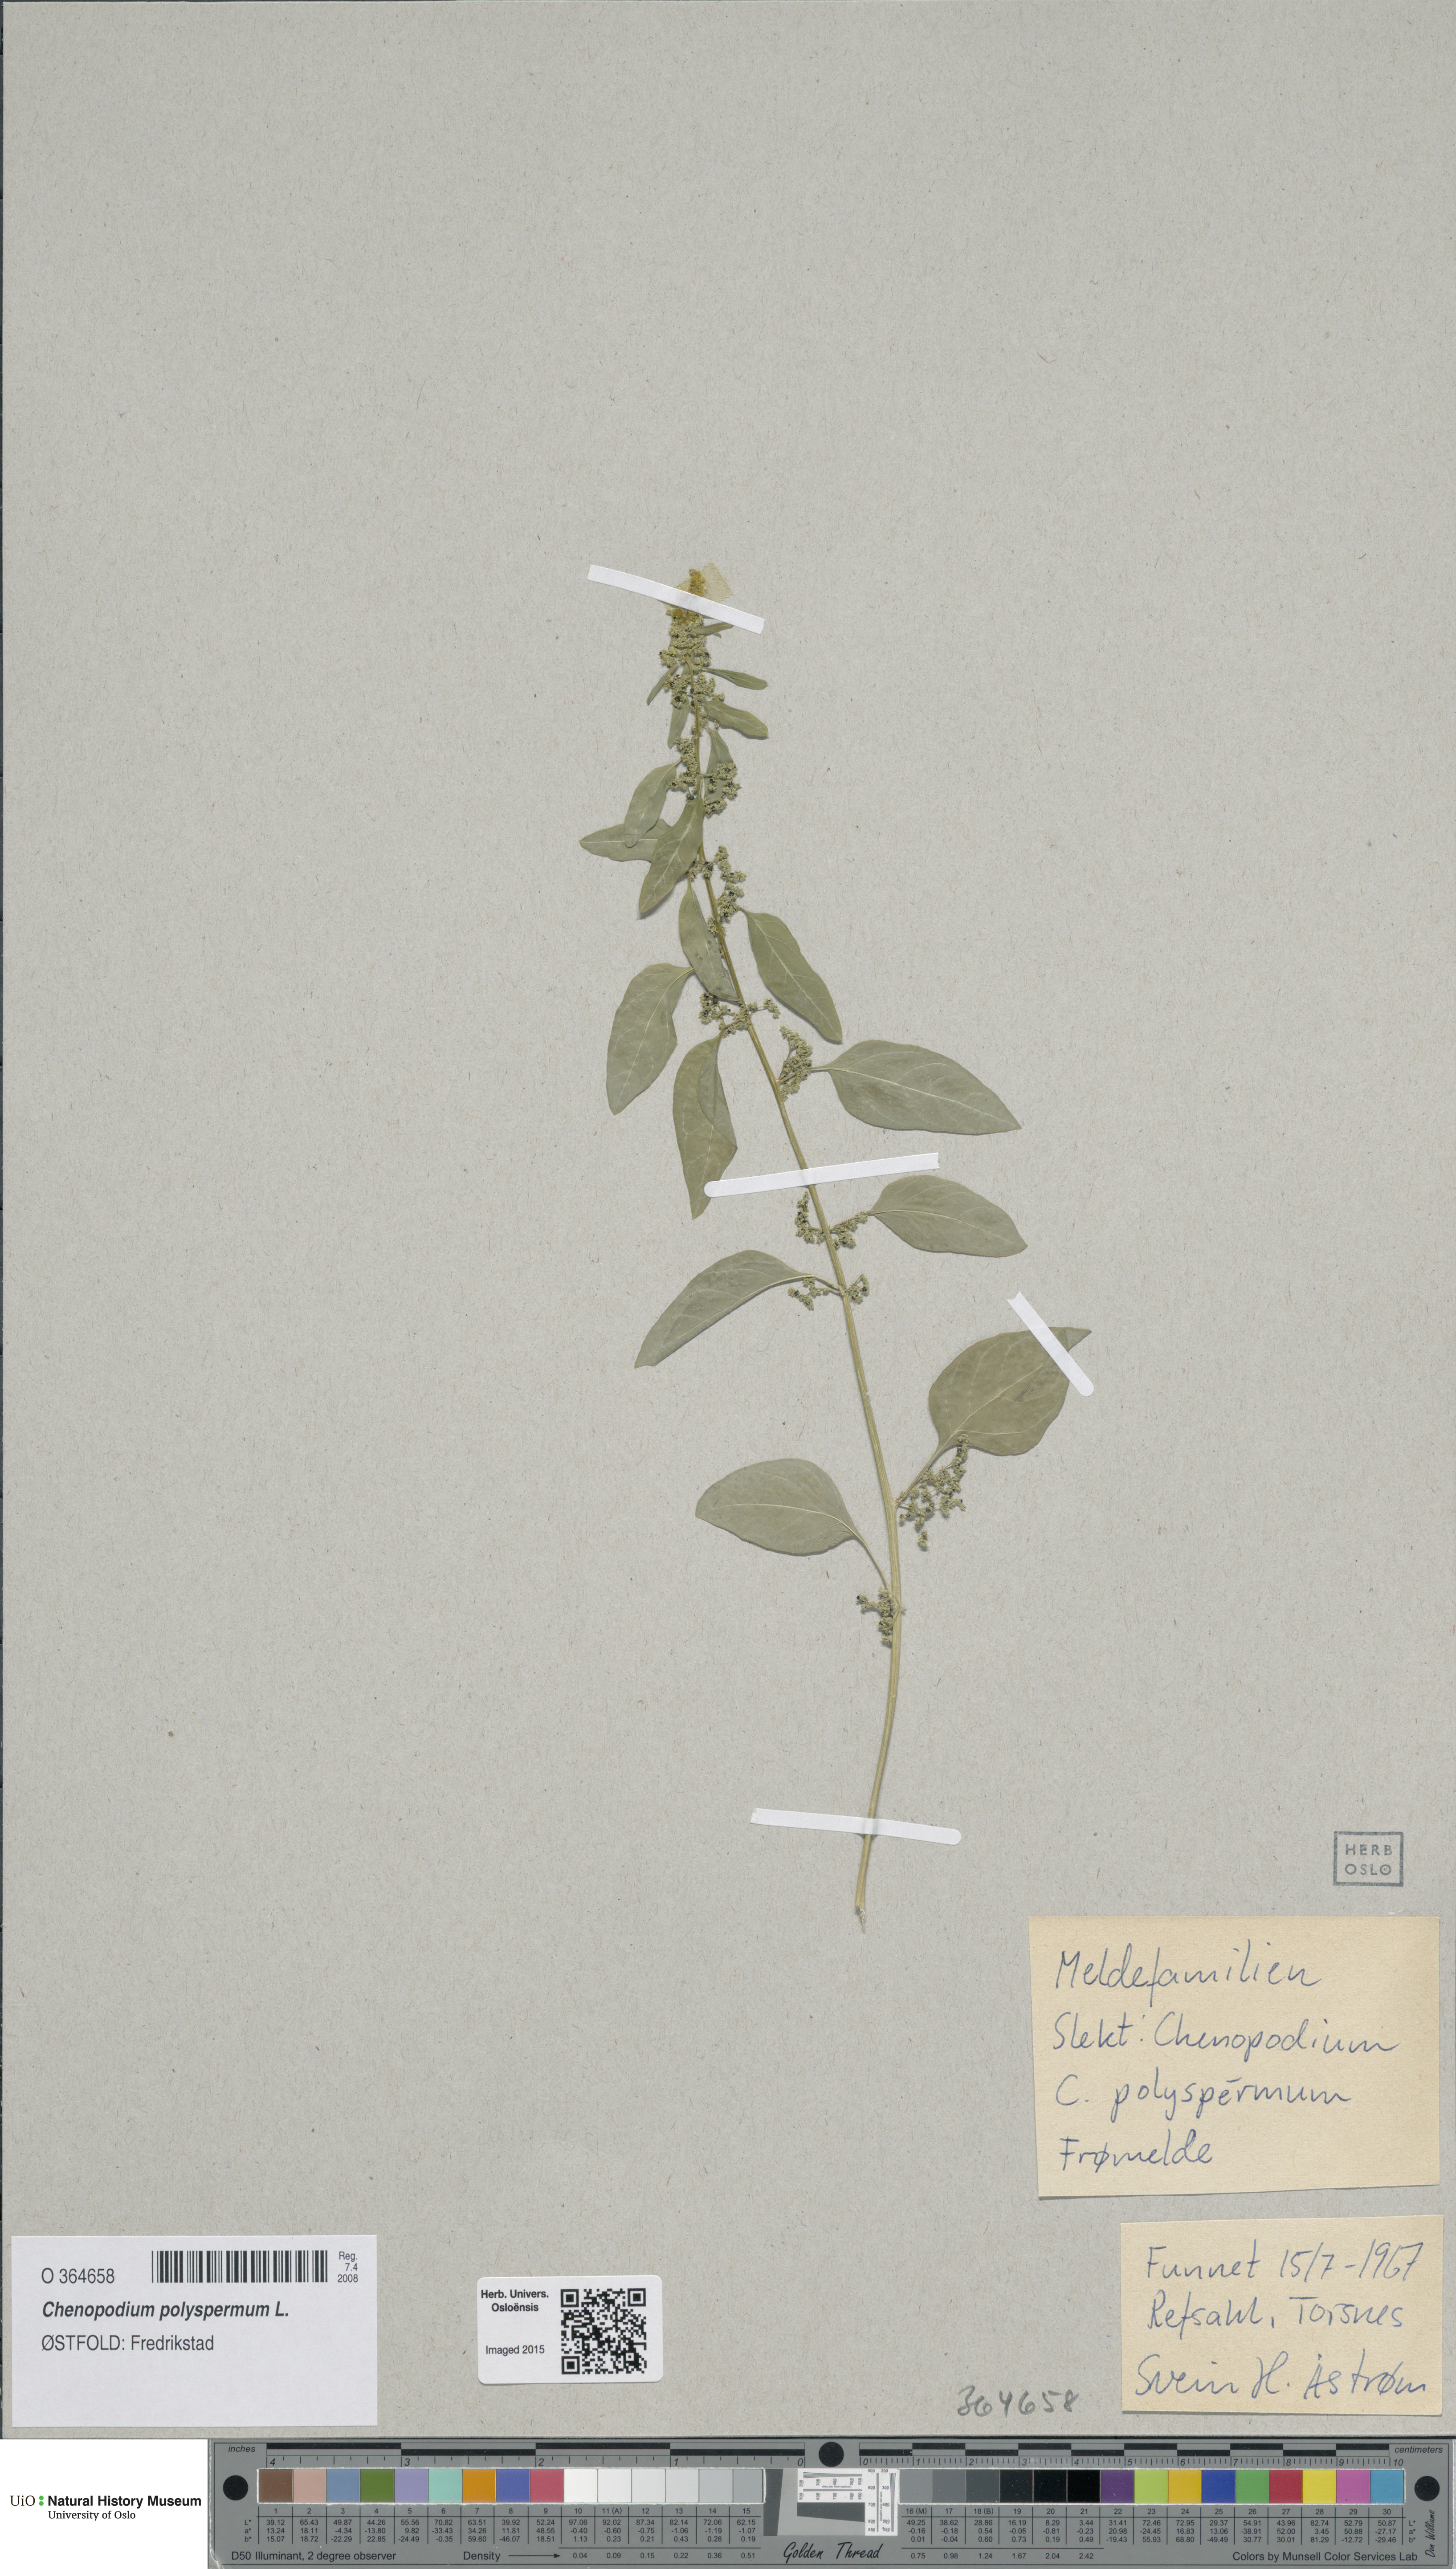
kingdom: Plantae
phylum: Tracheophyta
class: Magnoliopsida
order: Caryophyllales
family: Amaranthaceae
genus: Lipandra
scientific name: Lipandra polysperma
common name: Many-seed goosefoot
